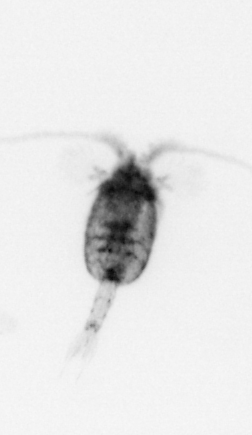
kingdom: Animalia
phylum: Arthropoda
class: Copepoda
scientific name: Copepoda
